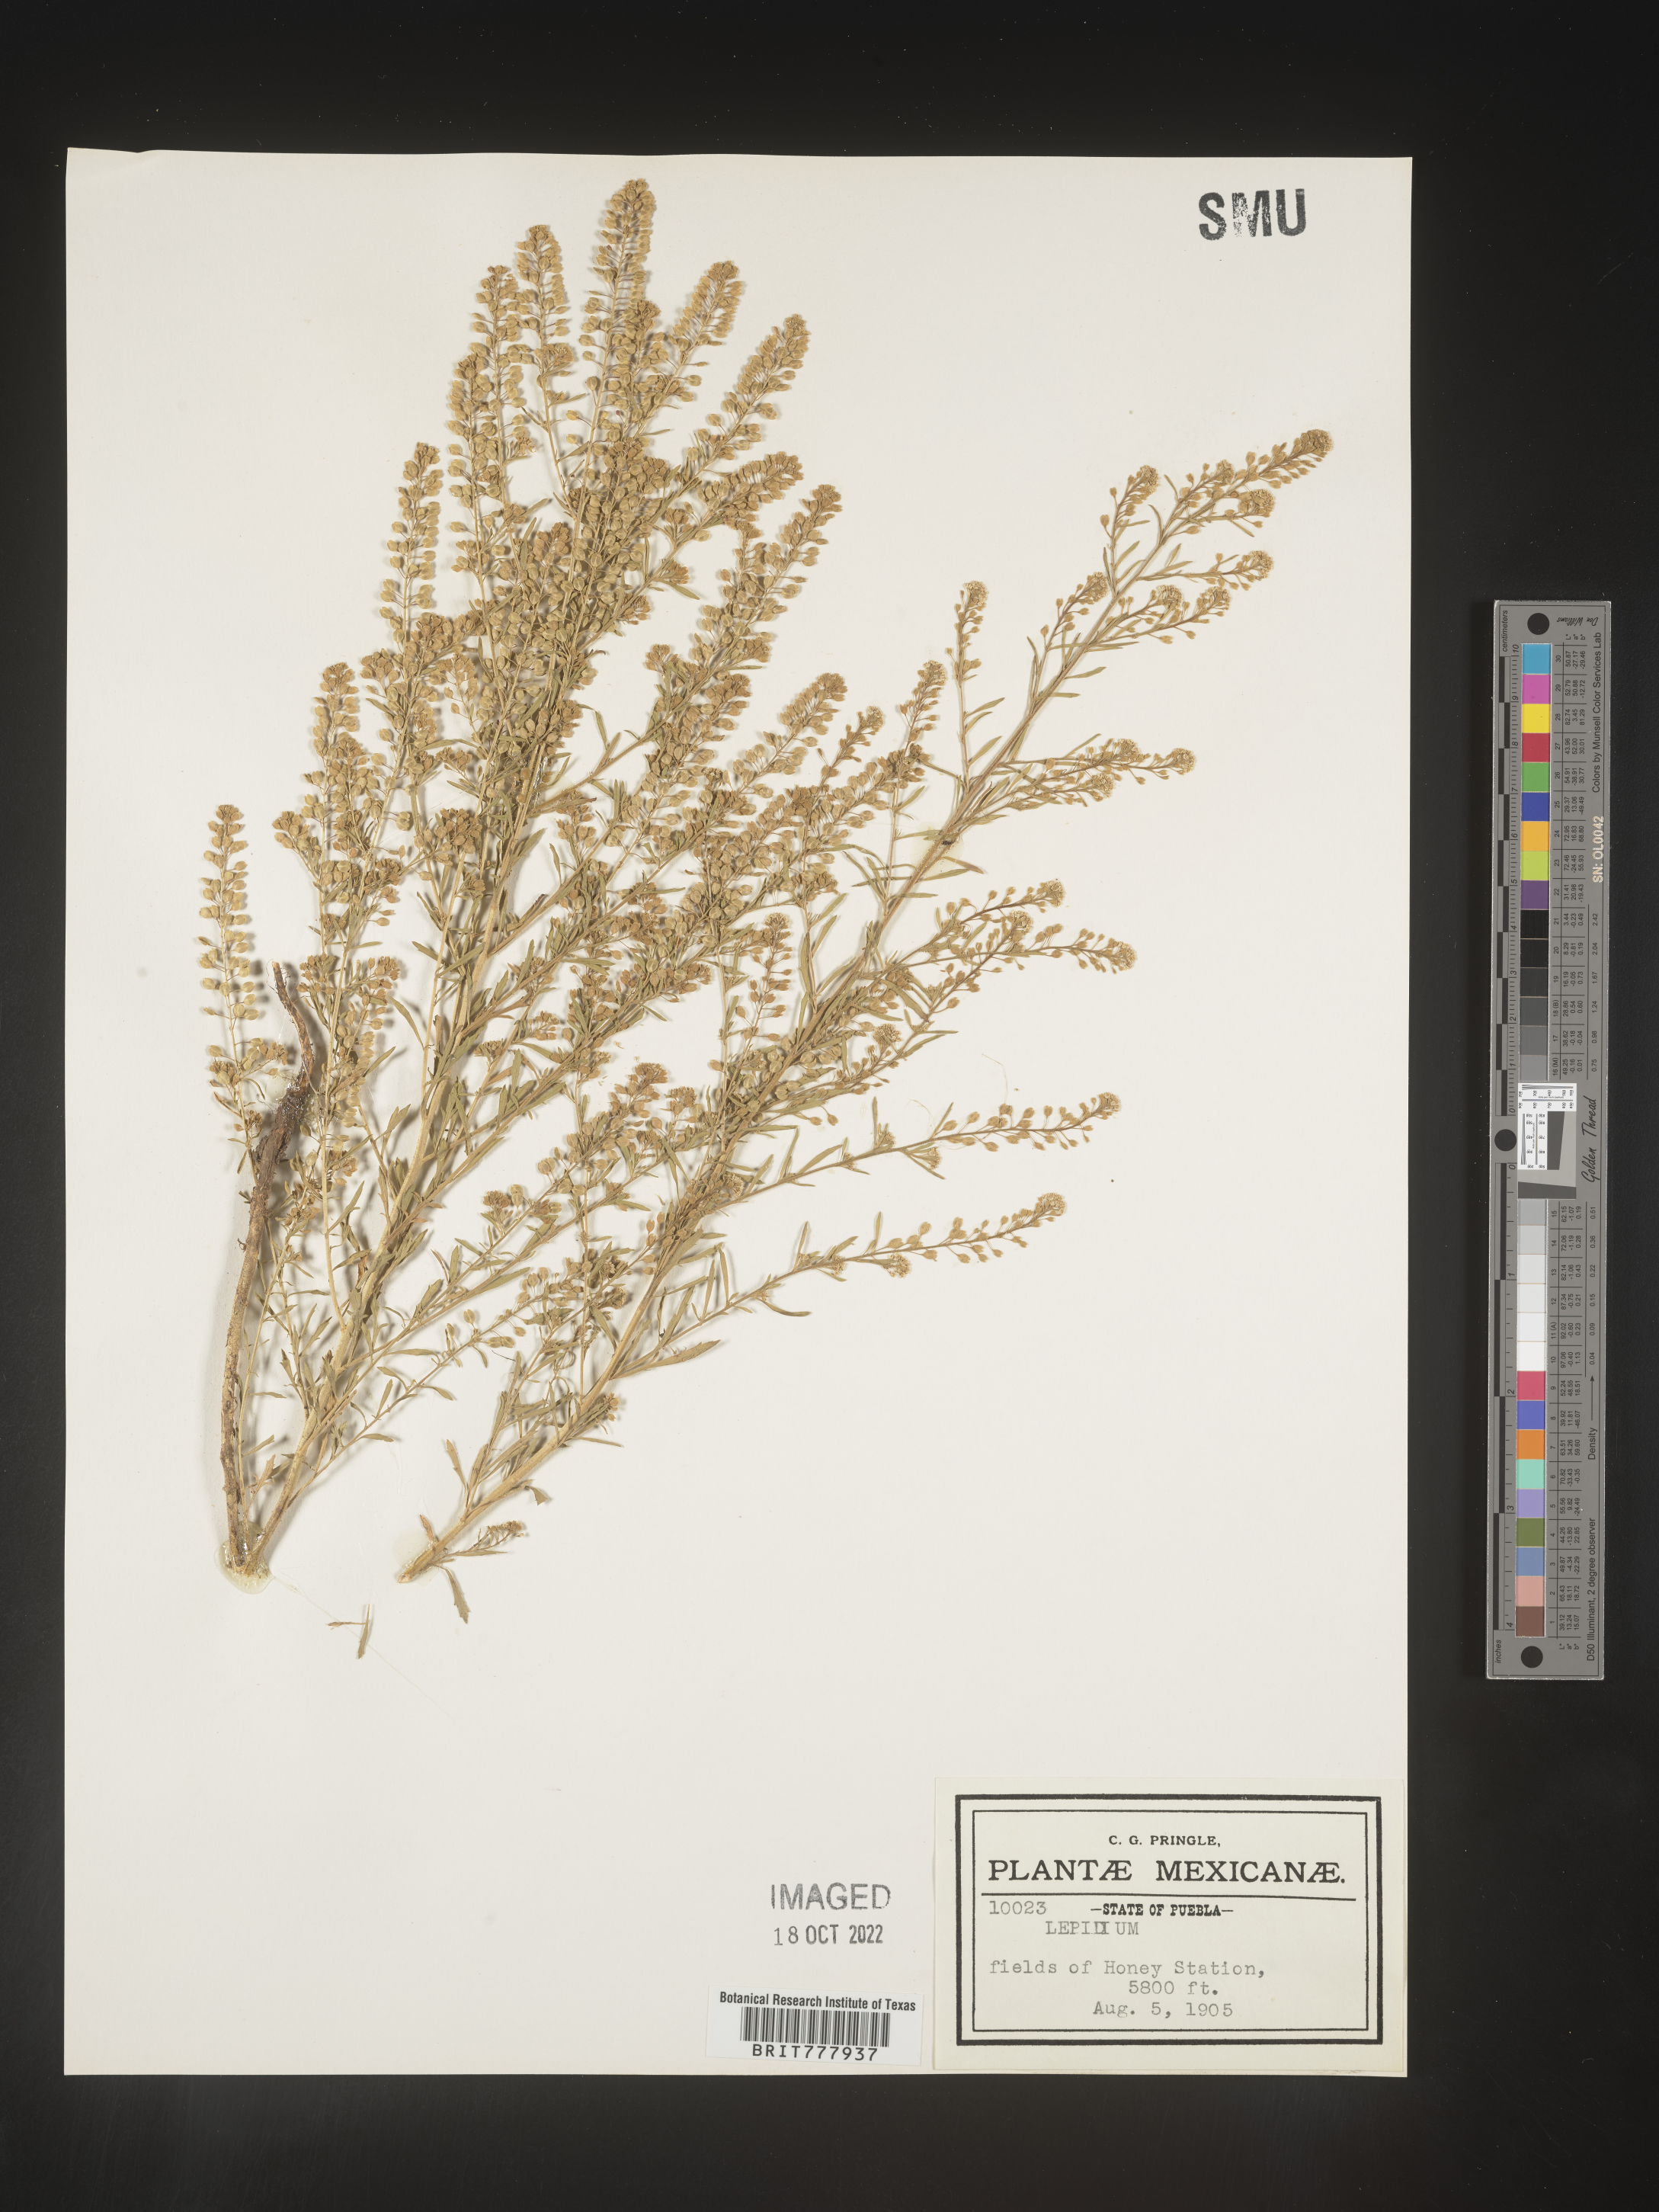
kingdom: Plantae
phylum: Tracheophyta
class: Magnoliopsida
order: Brassicales
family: Brassicaceae
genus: Lepidium
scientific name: Lepidium
